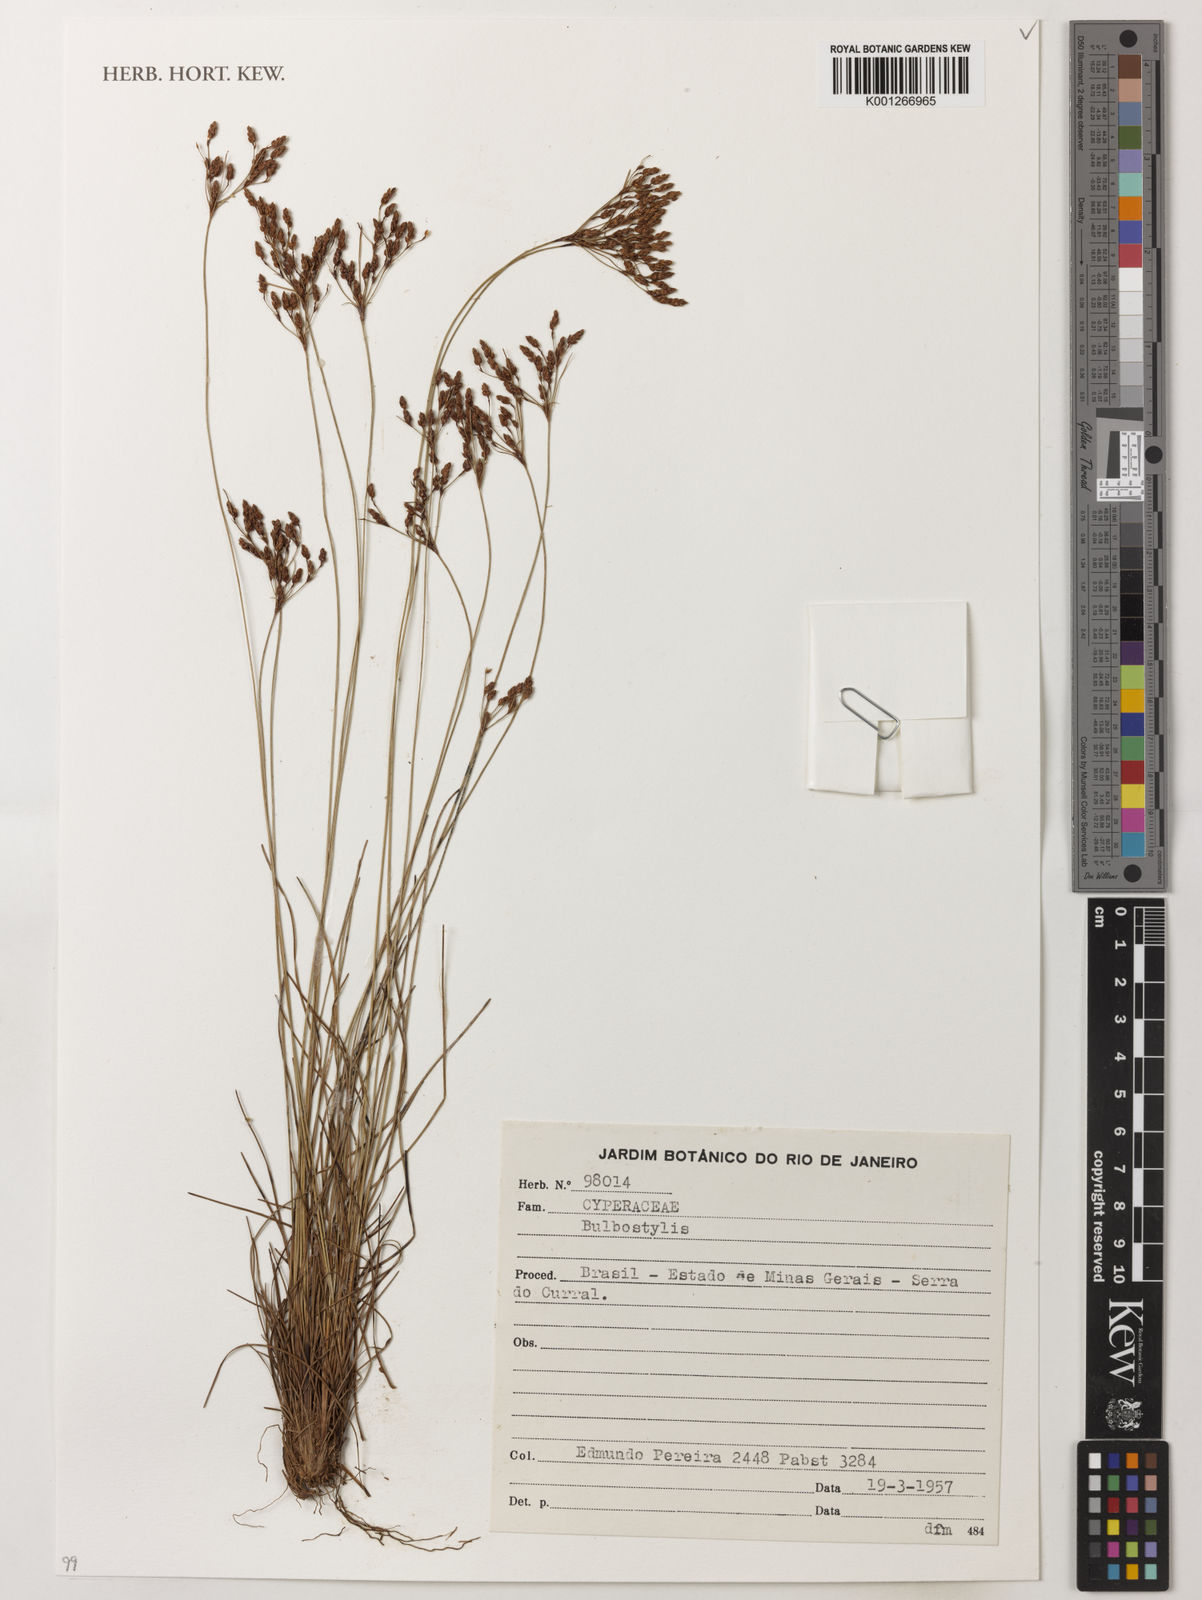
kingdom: Plantae
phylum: Tracheophyta
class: Liliopsida
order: Poales
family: Cyperaceae
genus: Bulbostylis
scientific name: Bulbostylis
